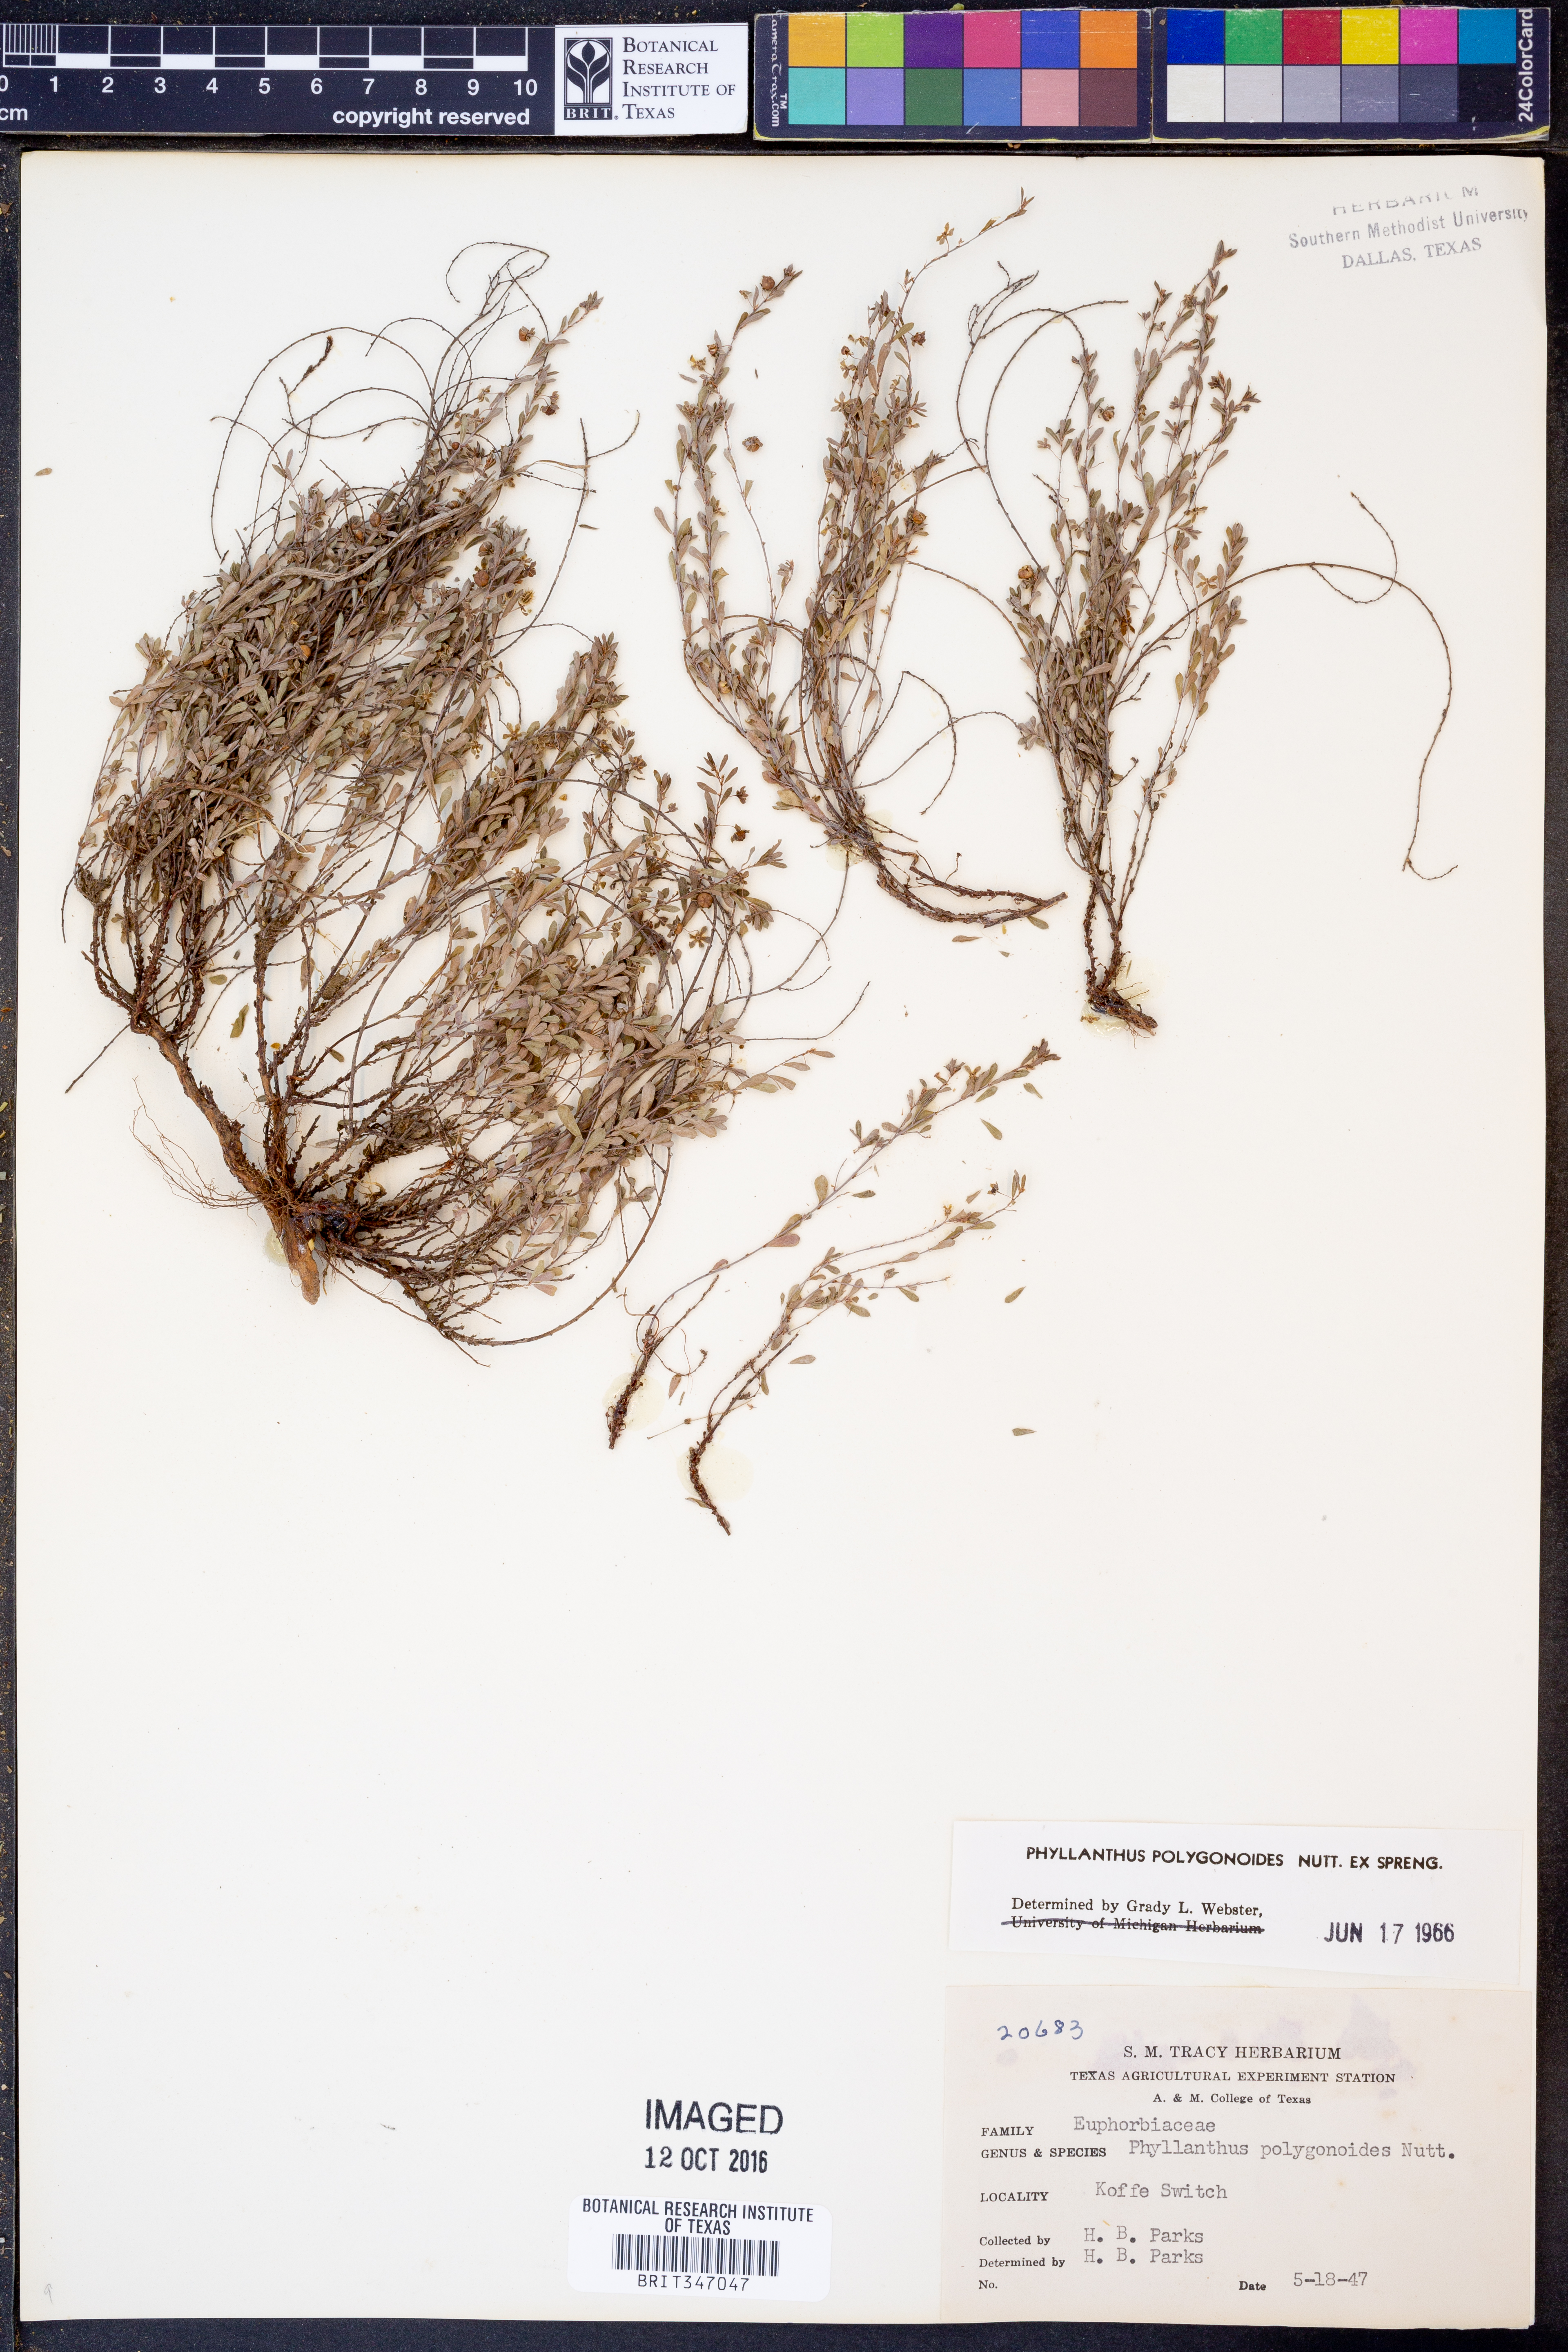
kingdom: Plantae
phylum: Tracheophyta
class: Magnoliopsida
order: Malpighiales
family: Phyllanthaceae
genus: Phyllanthus
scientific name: Phyllanthus polygonoides
